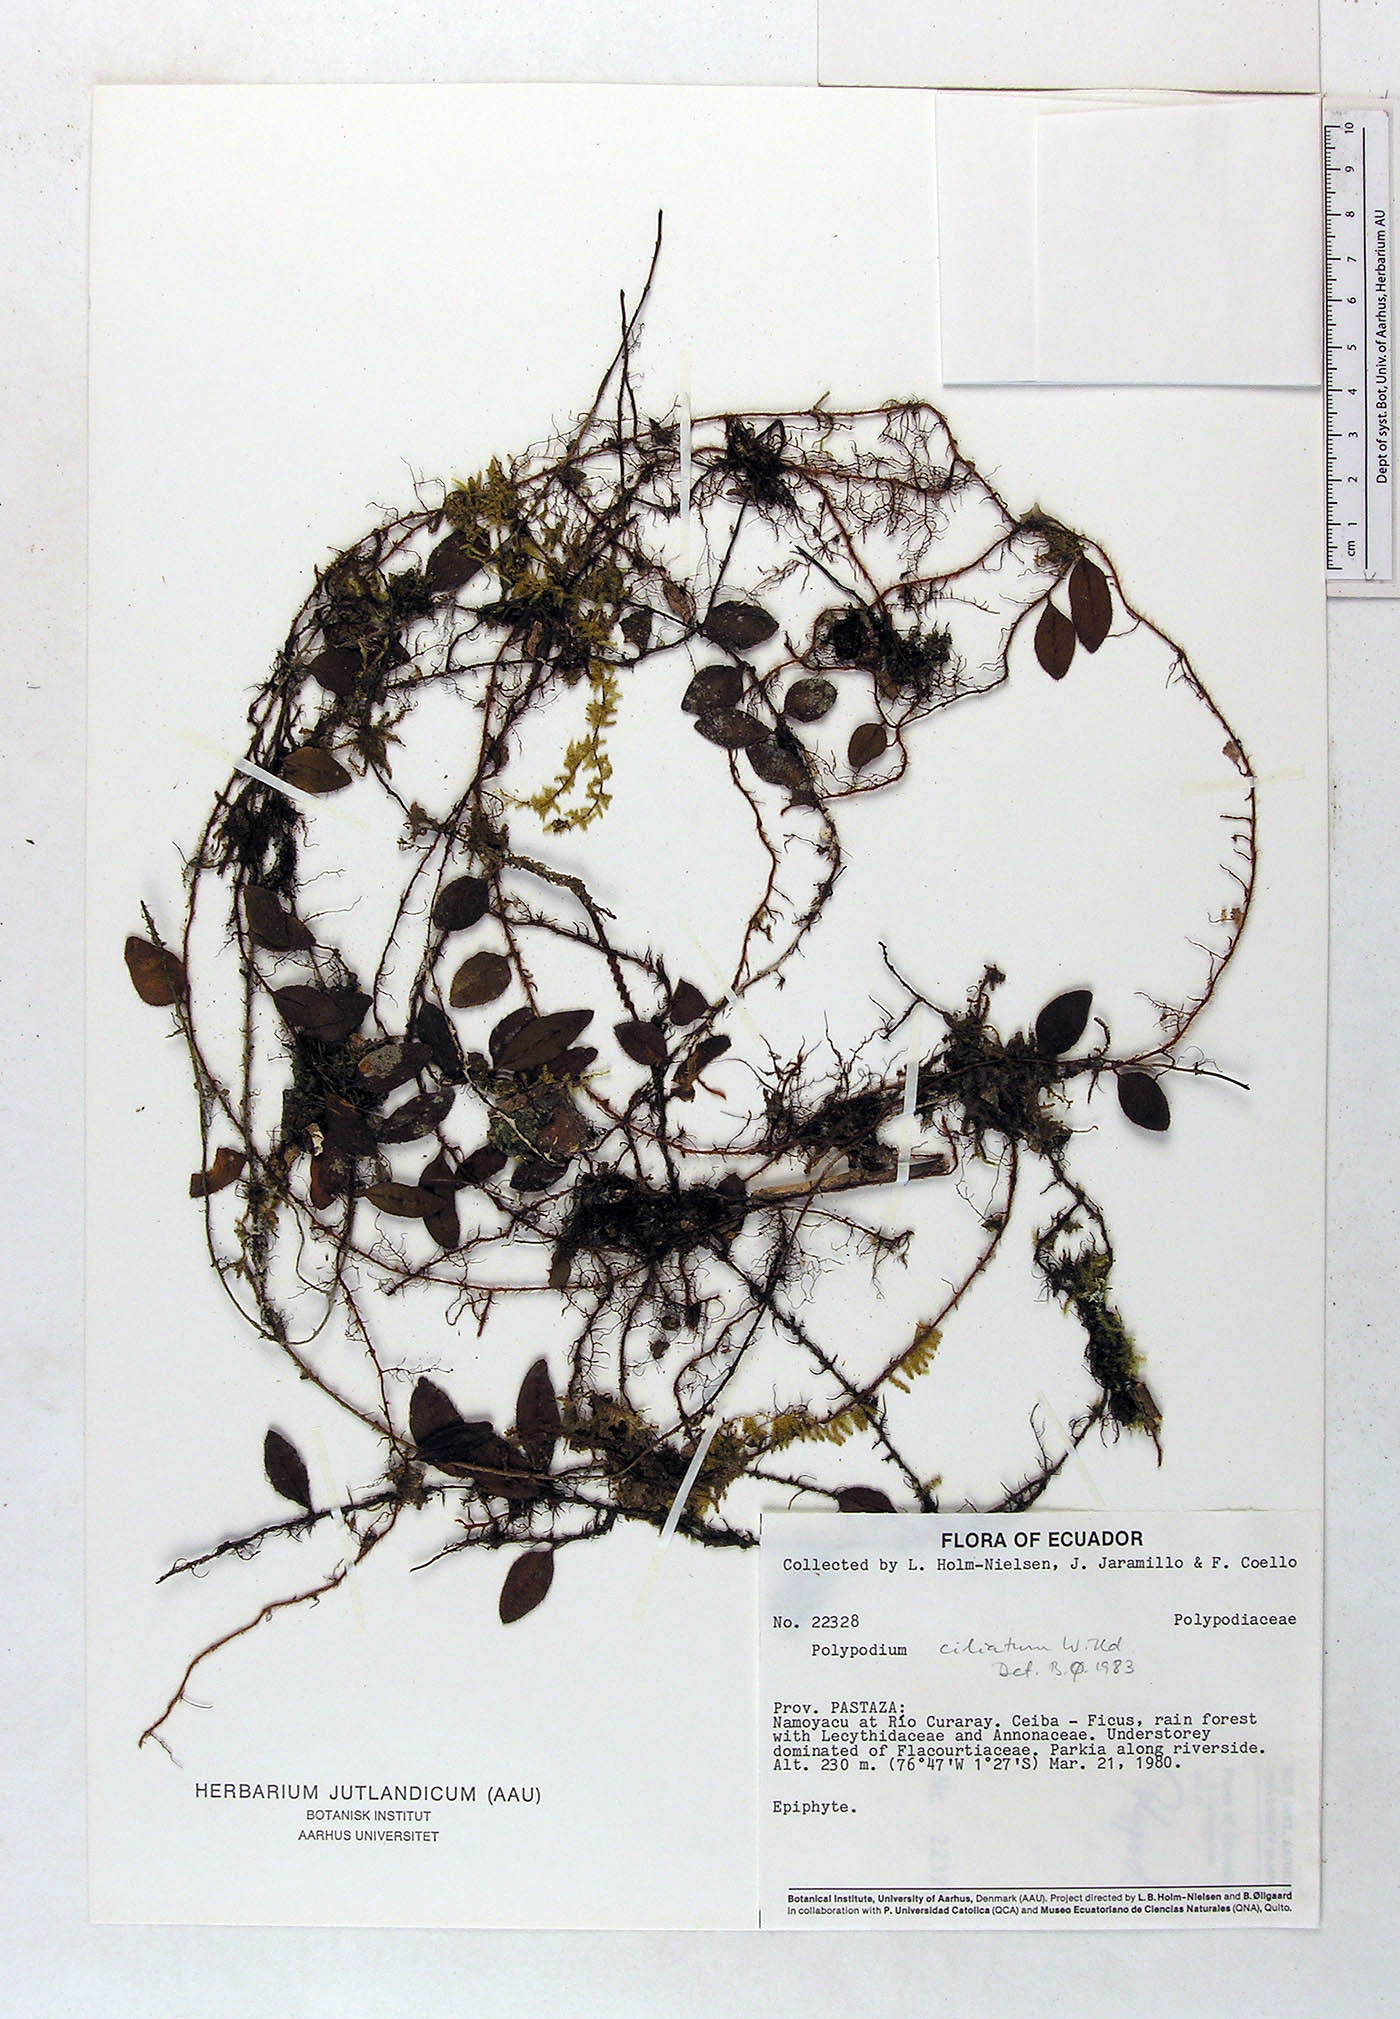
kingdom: Plantae
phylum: Tracheophyta
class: Polypodiopsida
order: Polypodiales
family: Polypodiaceae
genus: Microgramma
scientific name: Microgramma piloselloides
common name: Hairy snakefern
